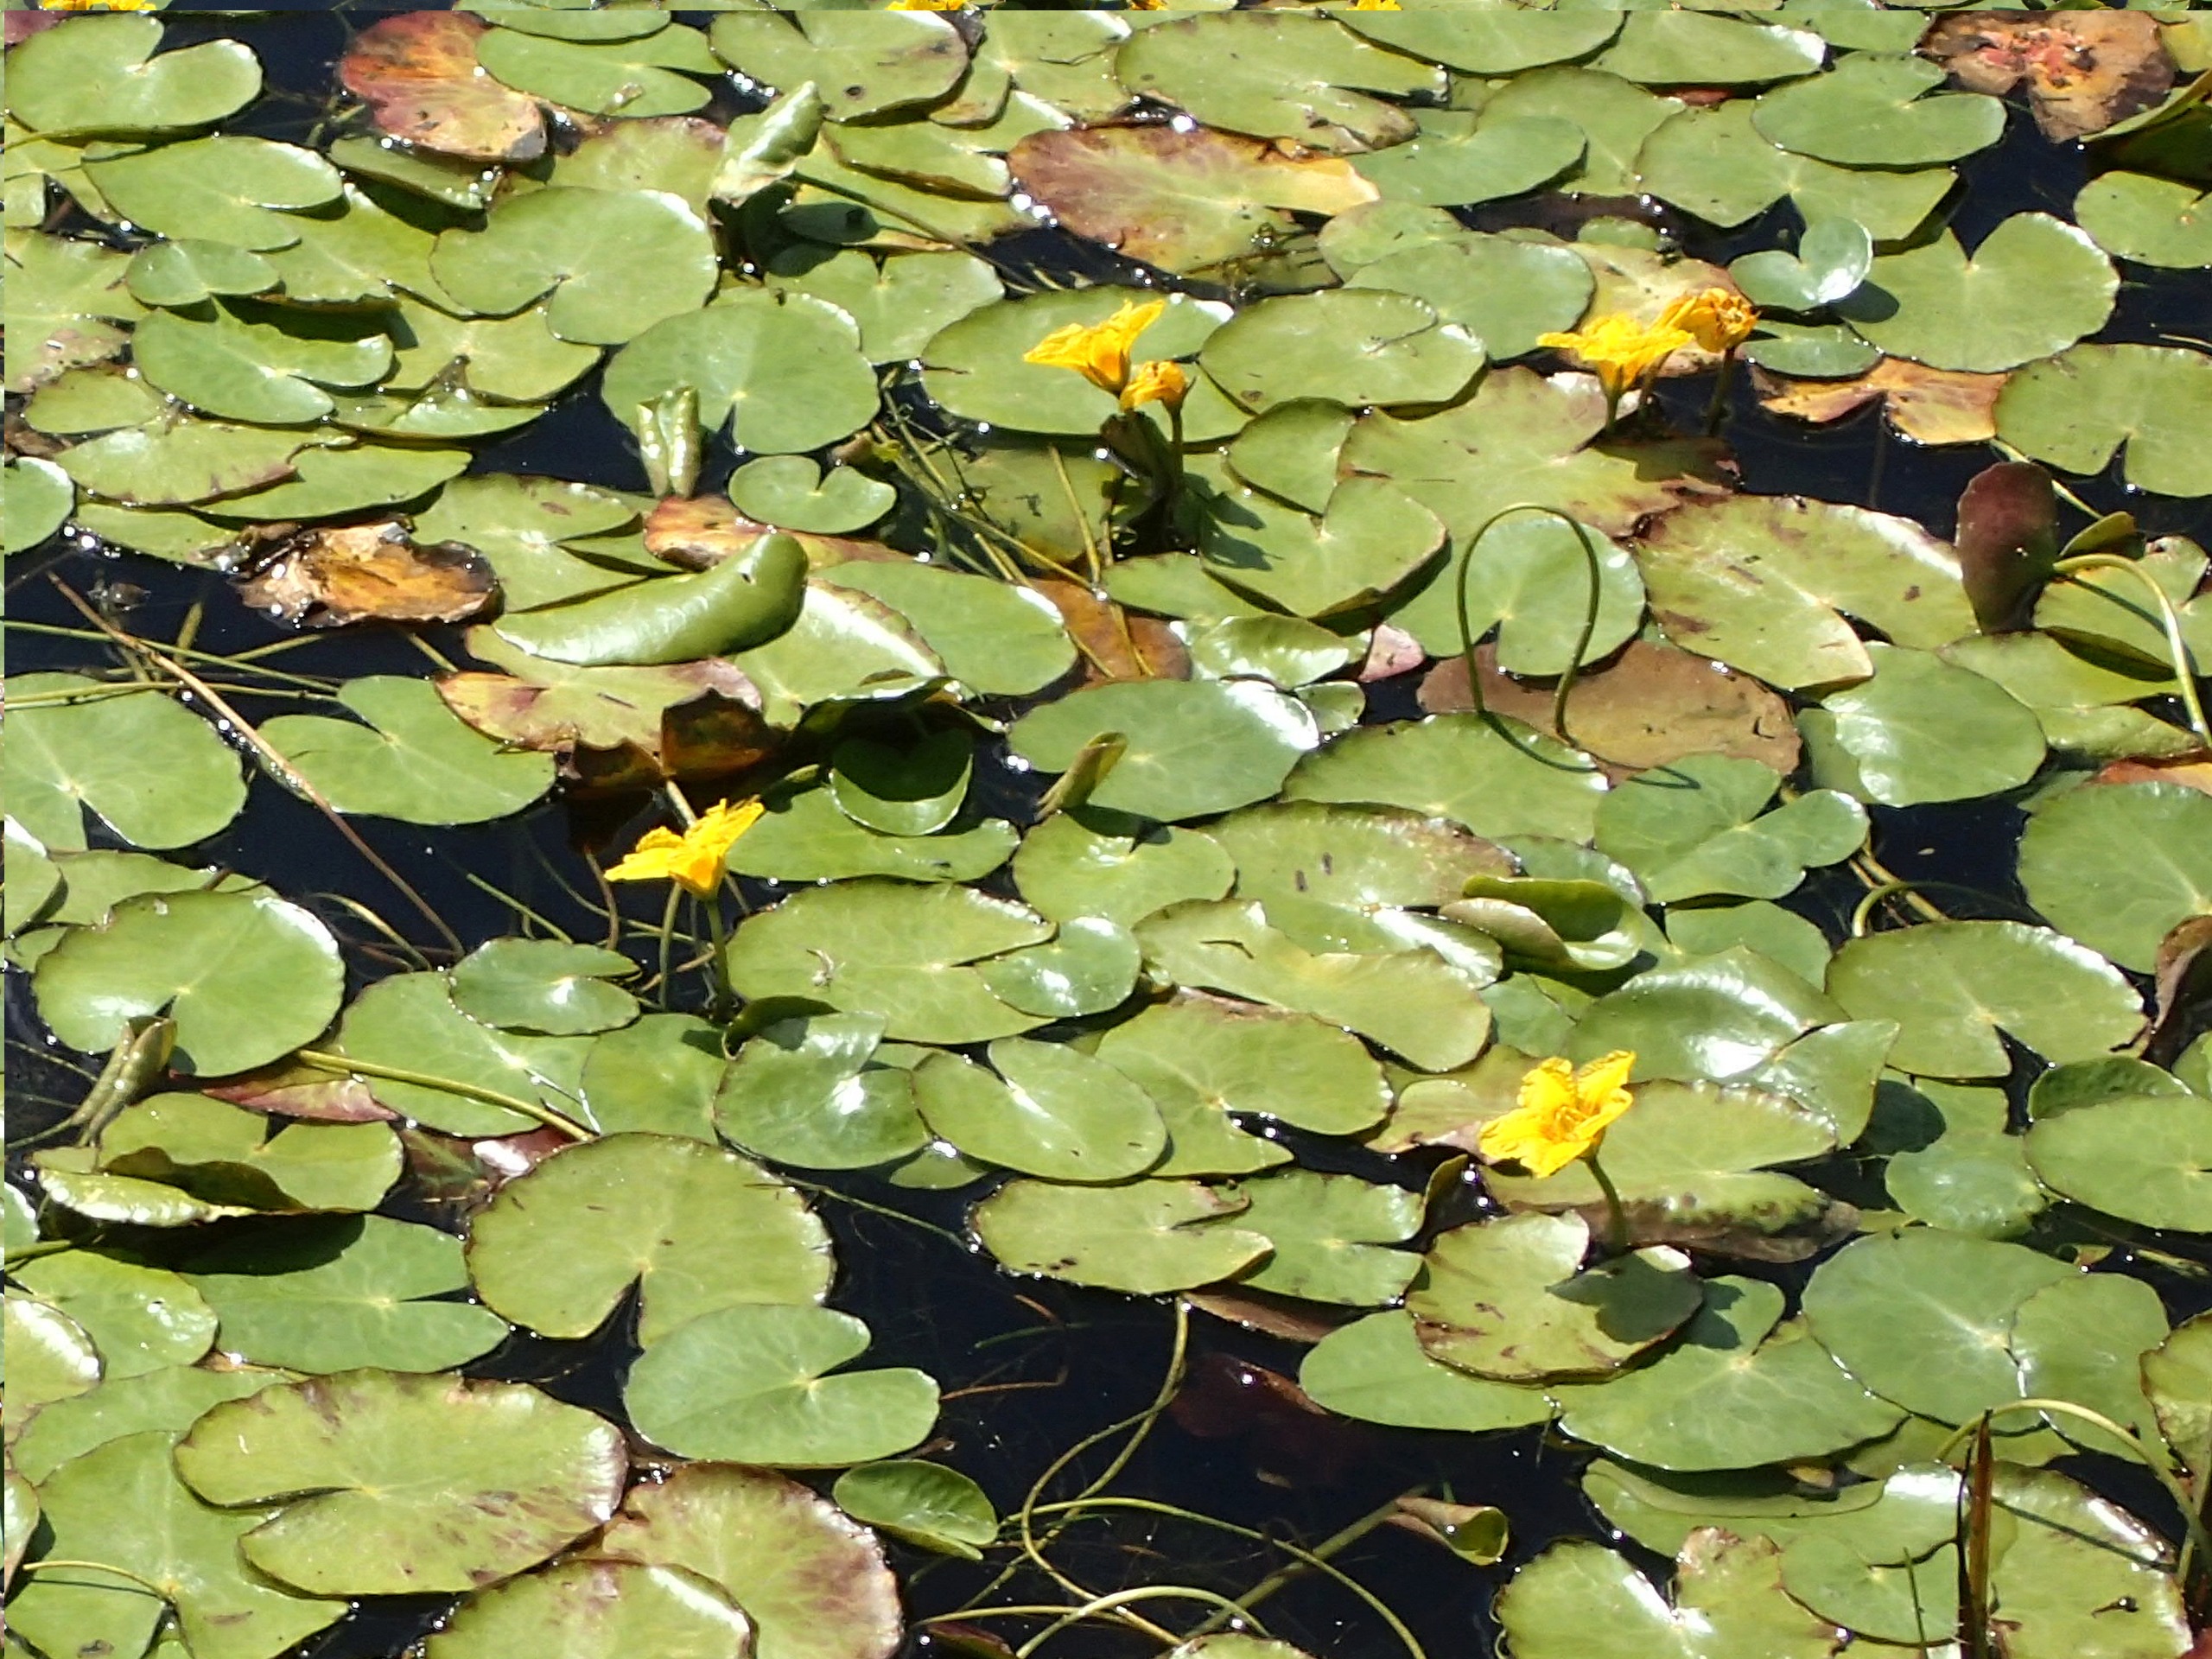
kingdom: Plantae
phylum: Tracheophyta
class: Magnoliopsida
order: Asterales
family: Menyanthaceae
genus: Nymphoides
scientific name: Nymphoides peltata
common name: Søblad
